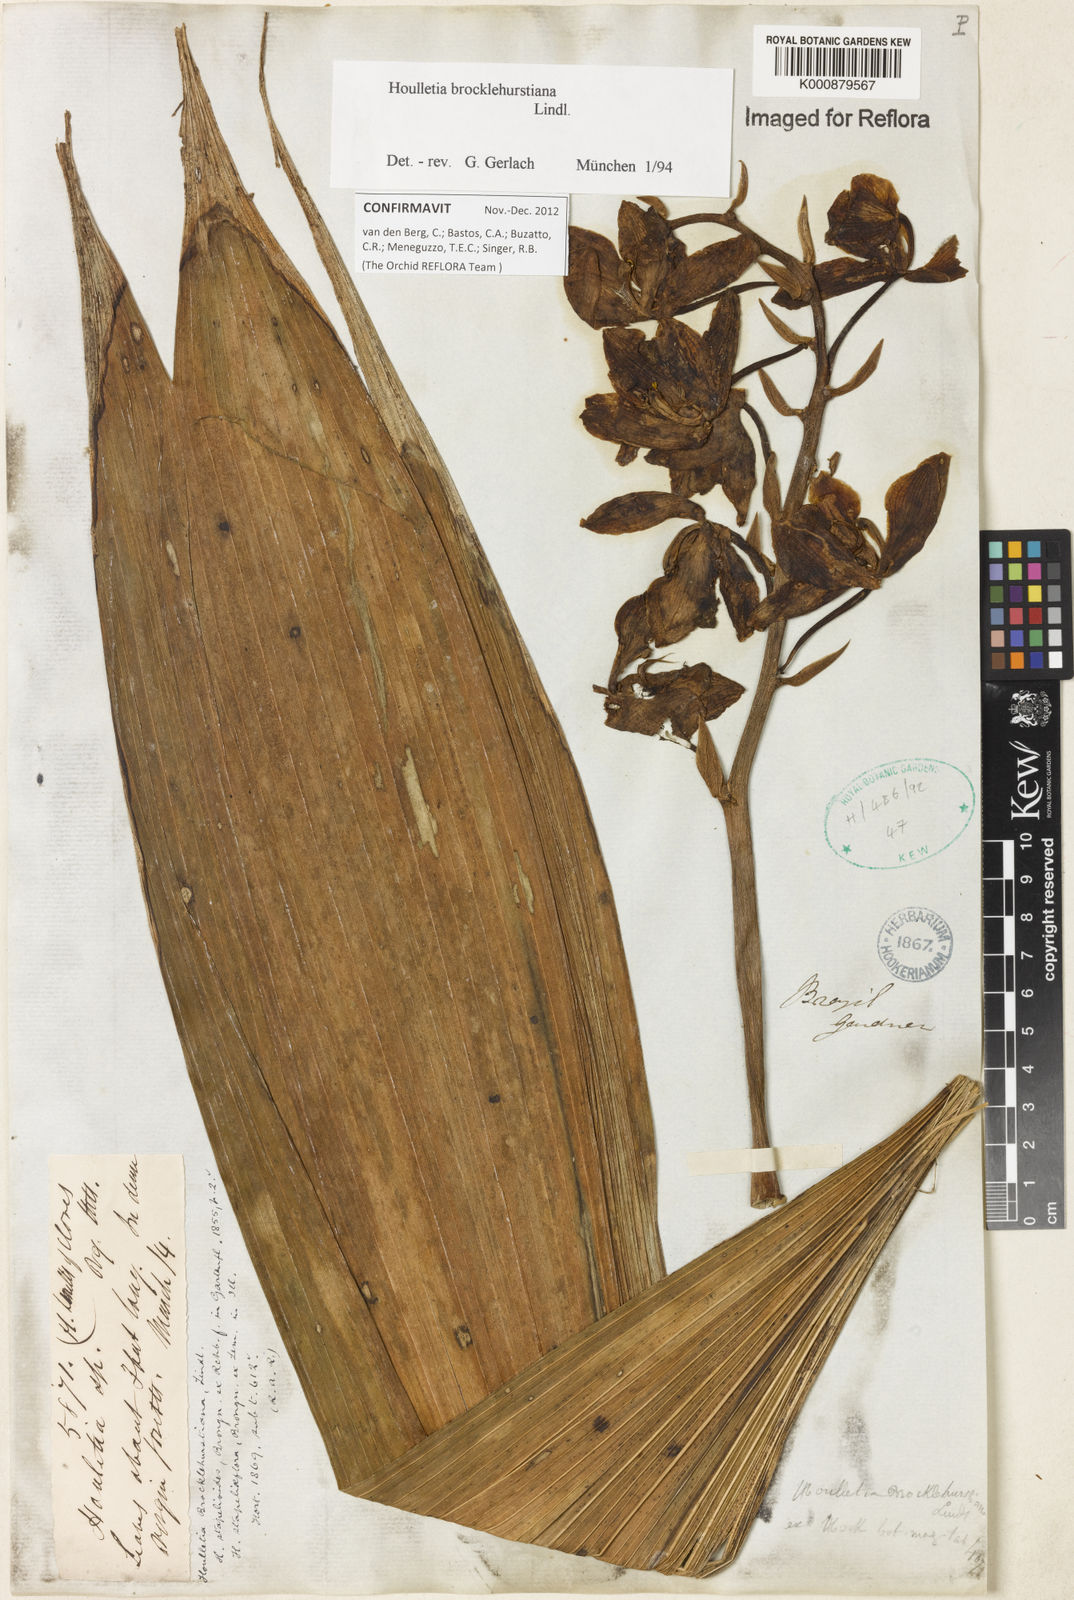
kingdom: Plantae
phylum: Tracheophyta
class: Liliopsida
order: Asparagales
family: Orchidaceae
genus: Houlletia
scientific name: Houlletia brocklehurstiana
